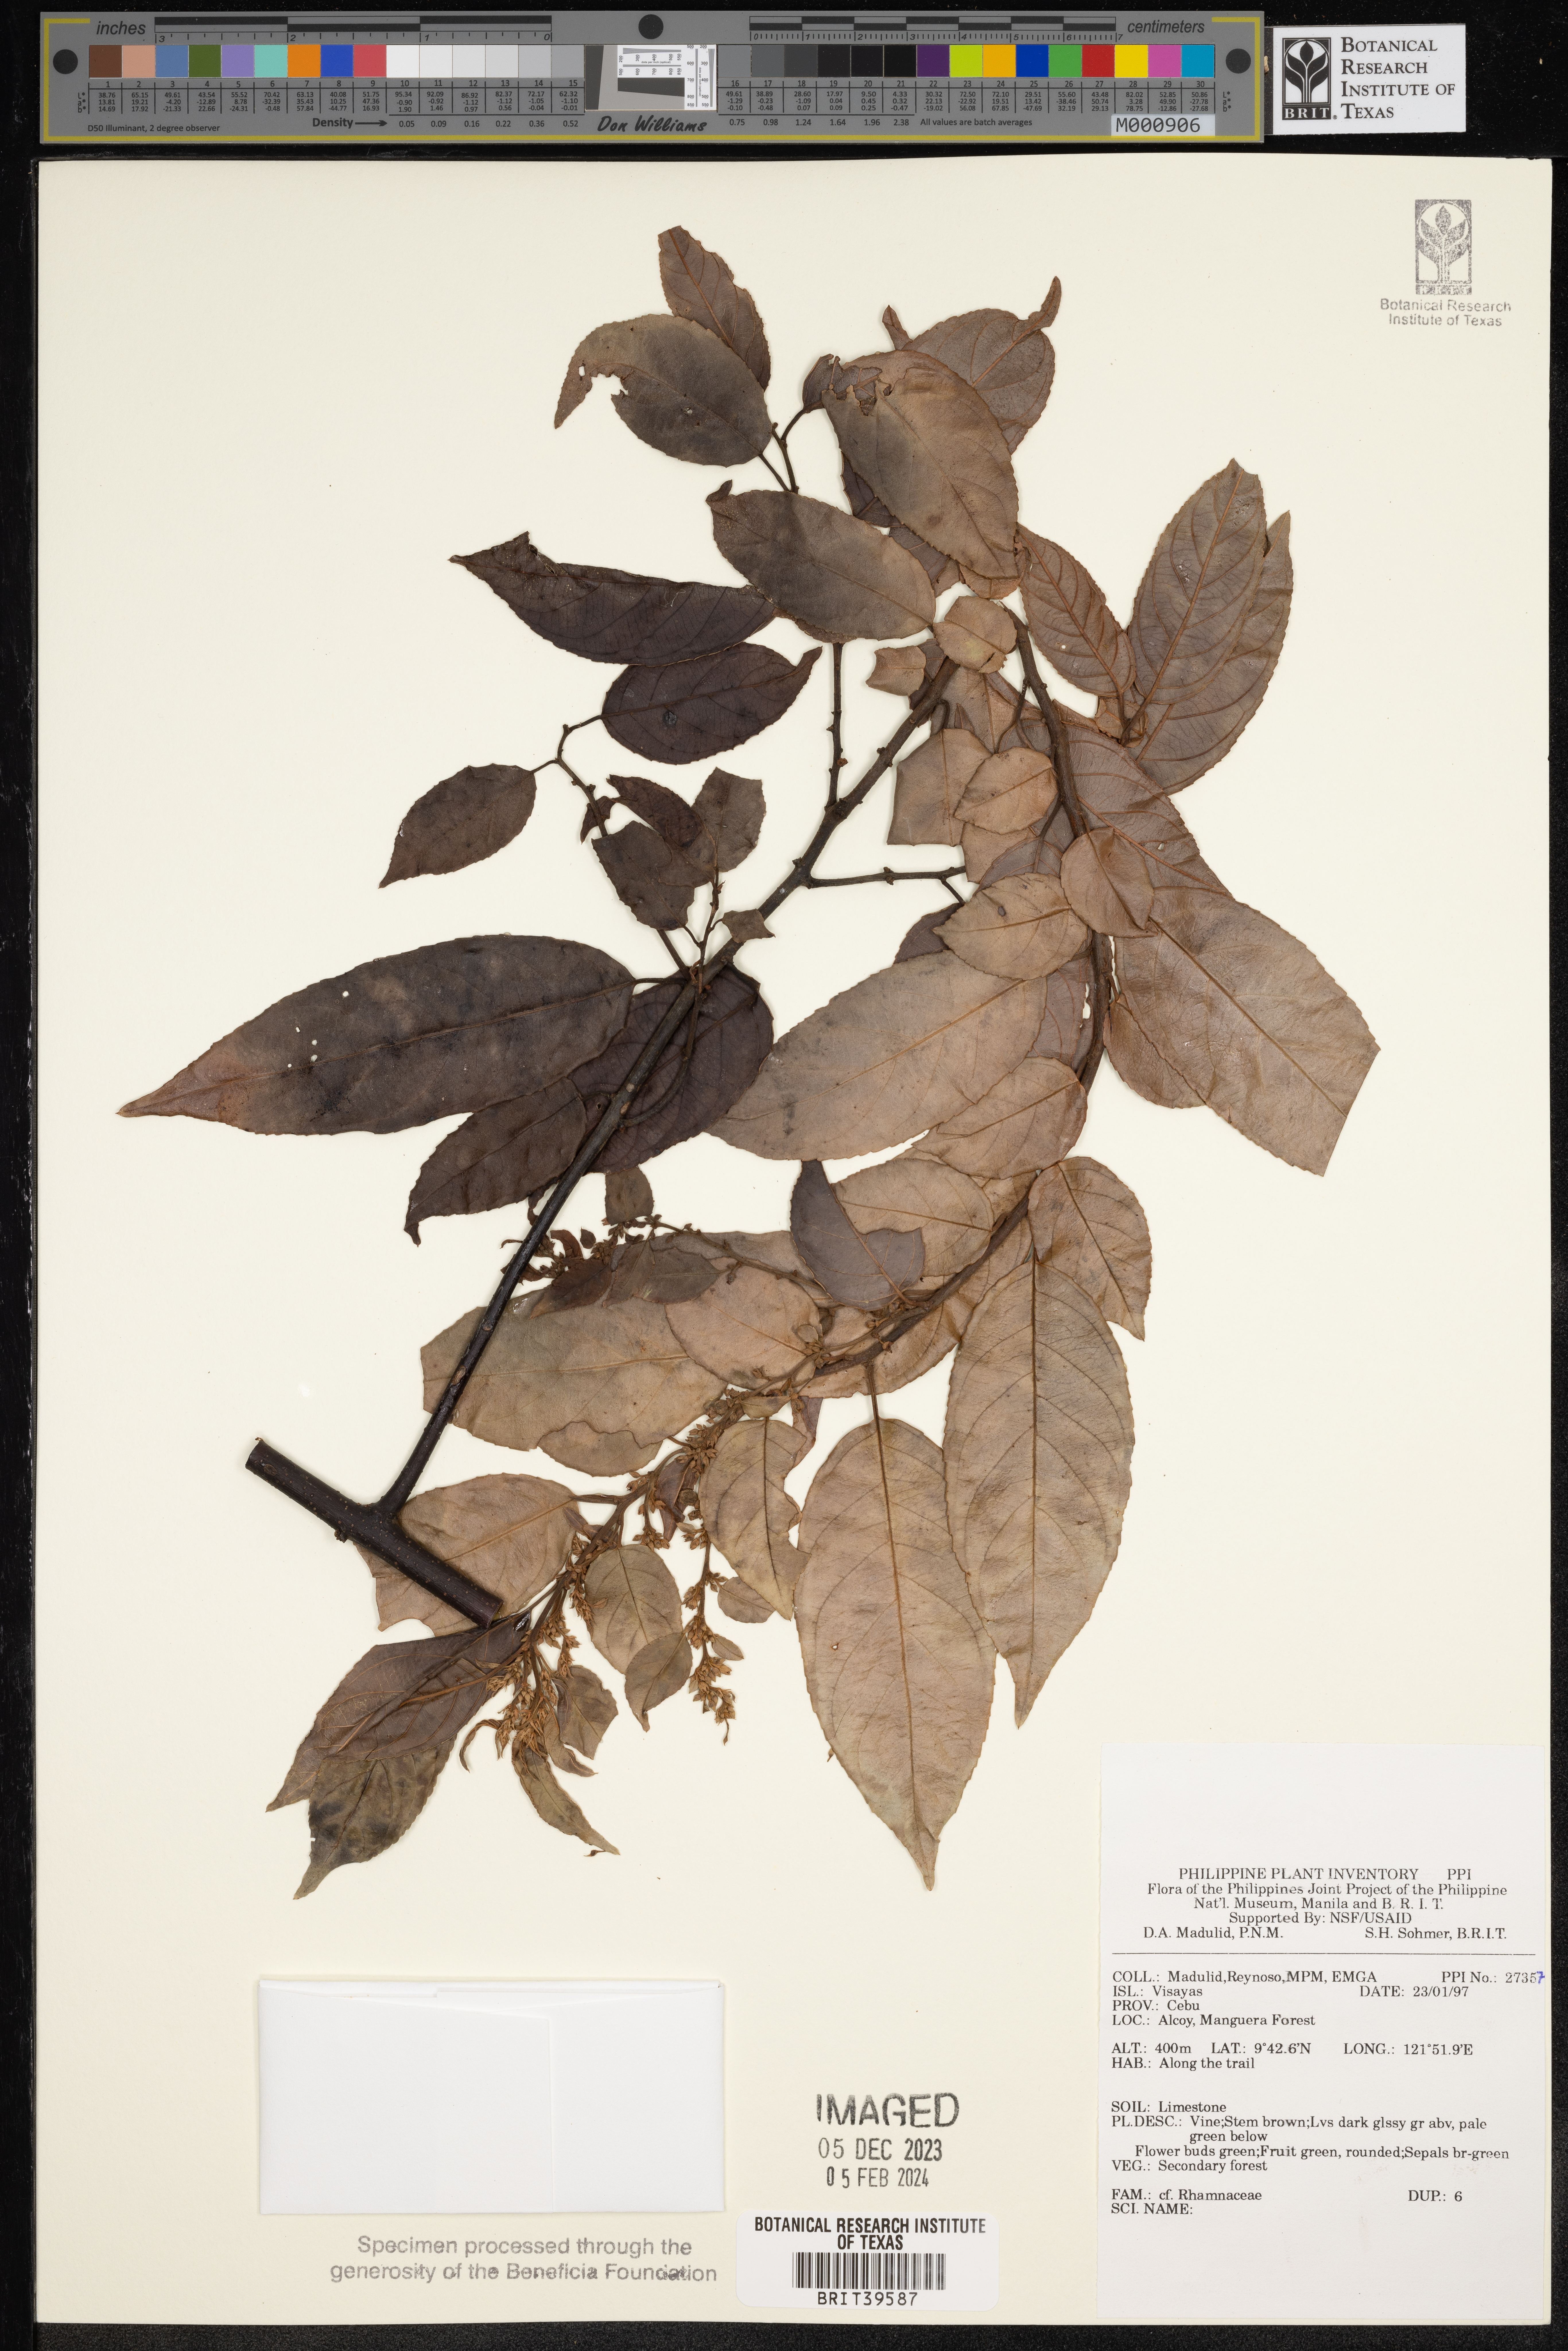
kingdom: Plantae
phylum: Tracheophyta
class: Magnoliopsida
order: Rosales
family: Rhamnaceae
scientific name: Rhamnaceae
